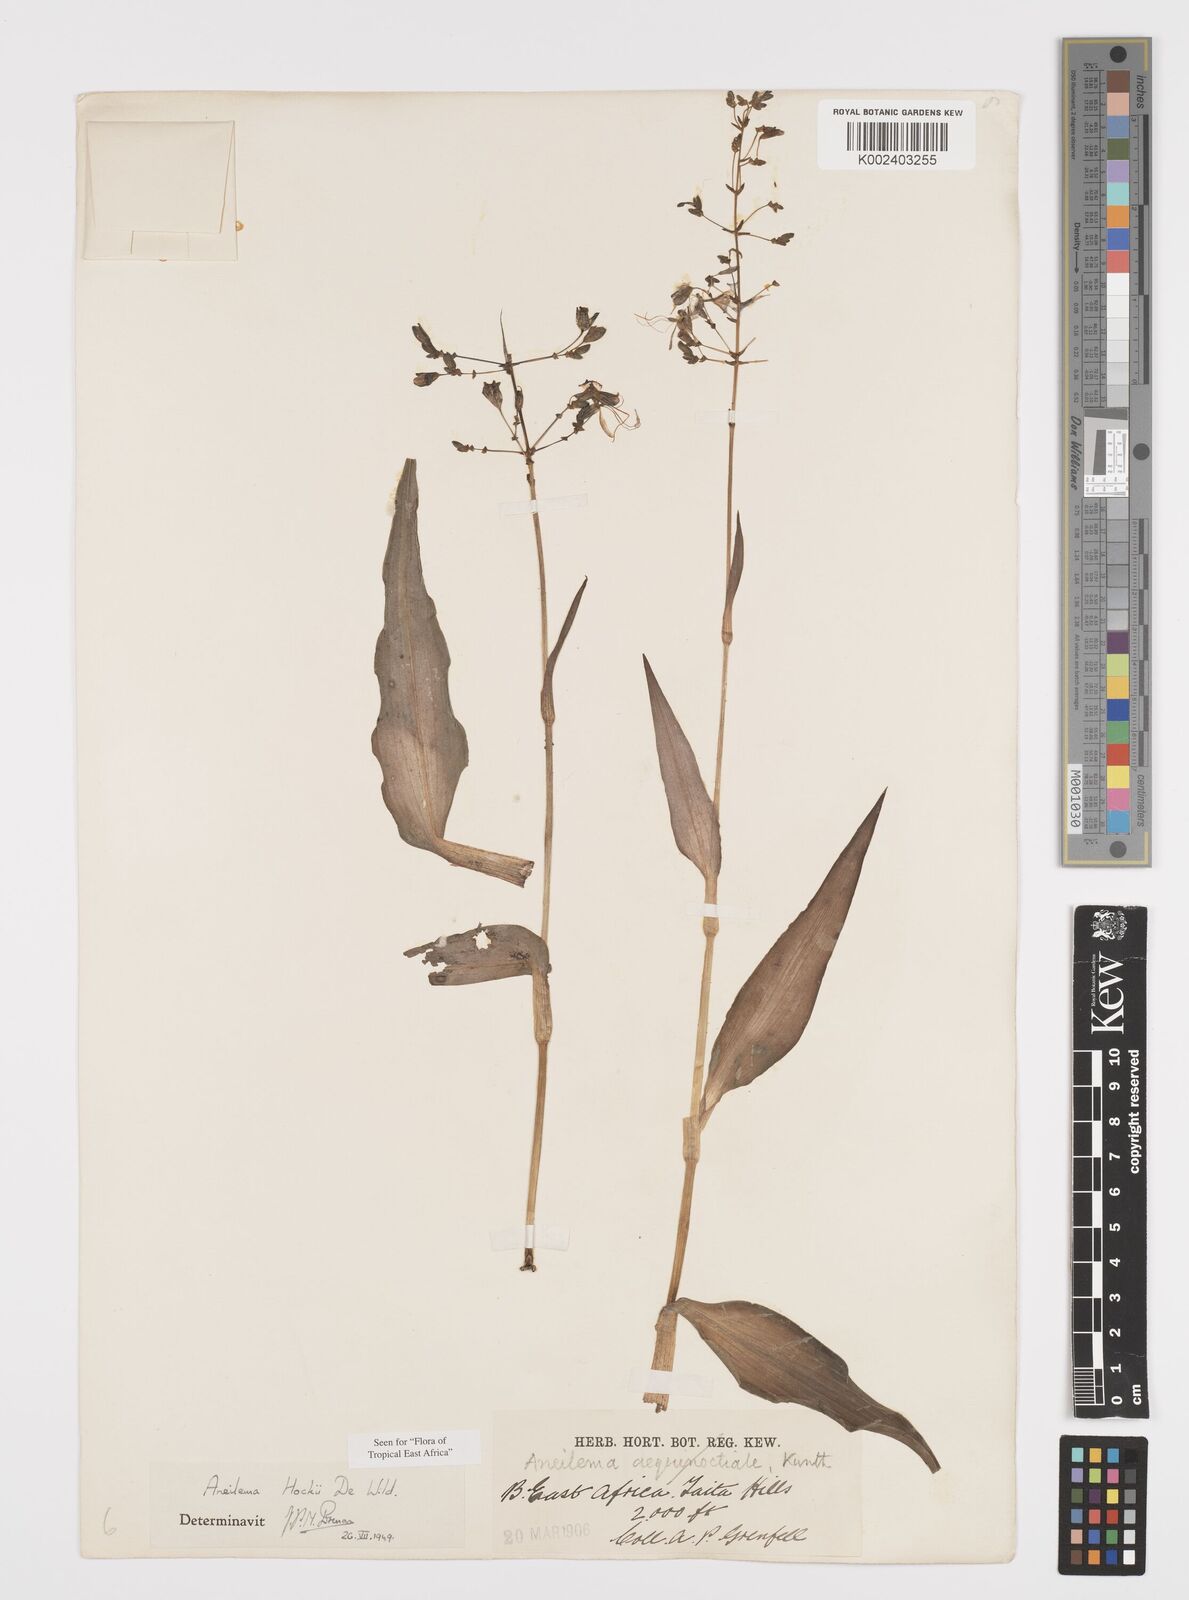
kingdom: Plantae
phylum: Tracheophyta
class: Liliopsida
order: Commelinales
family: Commelinaceae
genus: Aneilema
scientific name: Aneilema hockii
